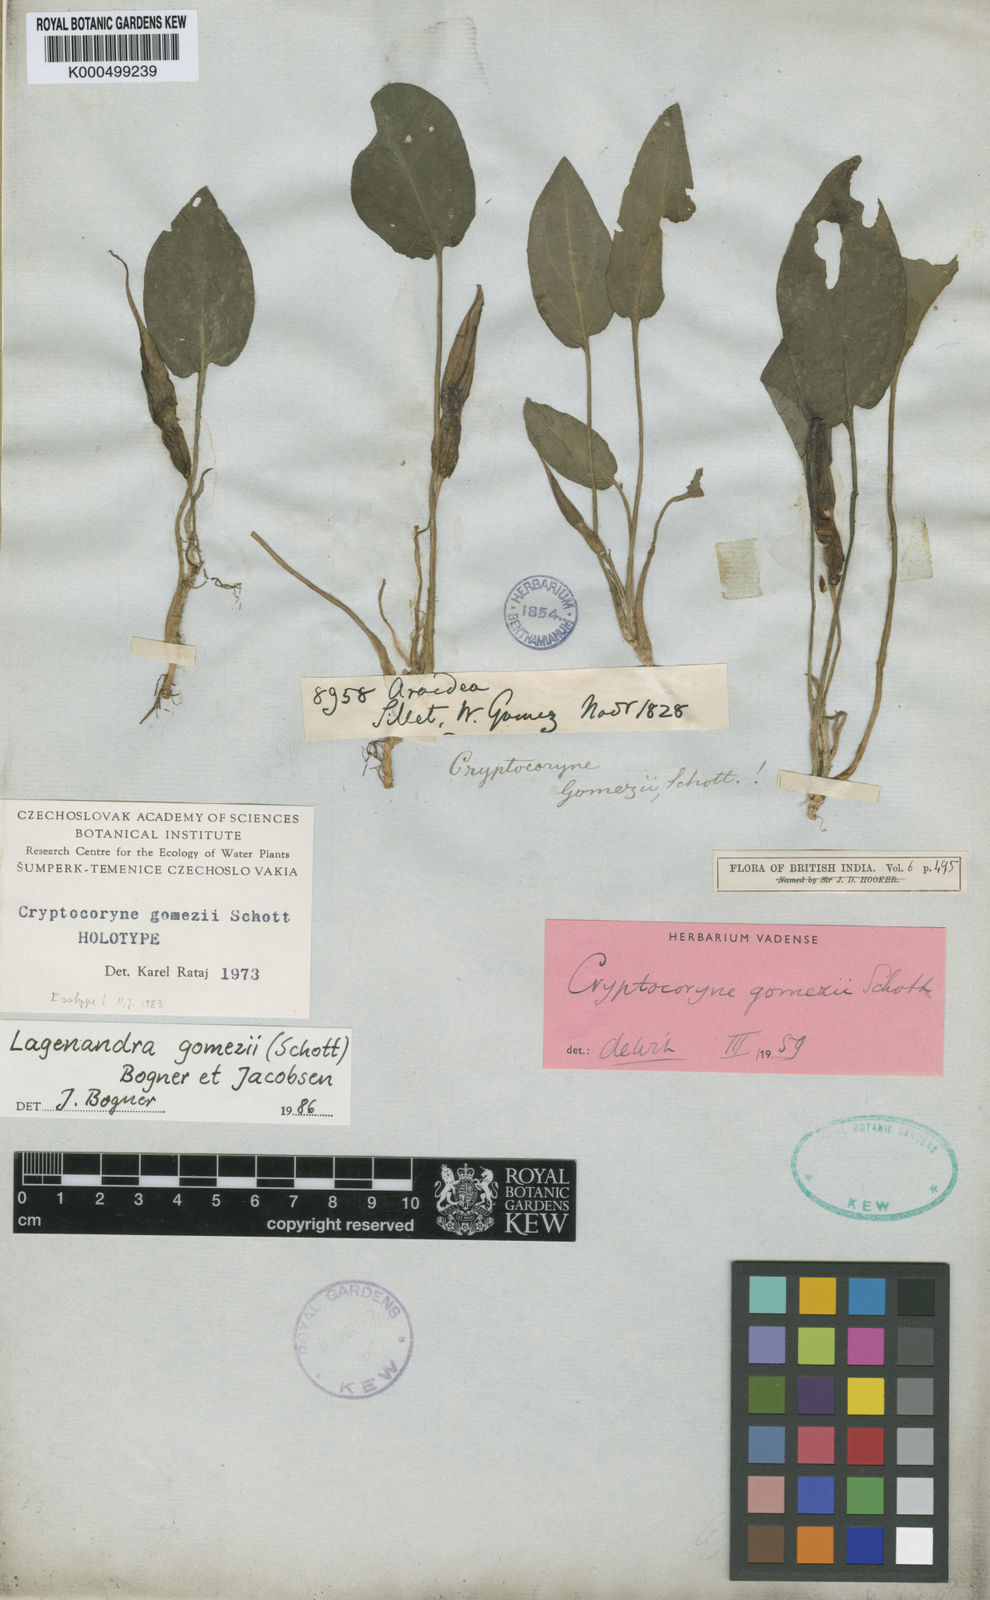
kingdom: Plantae
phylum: Tracheophyta
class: Liliopsida
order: Alismatales
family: Araceae
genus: Lagenandra
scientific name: Lagenandra gomezii
